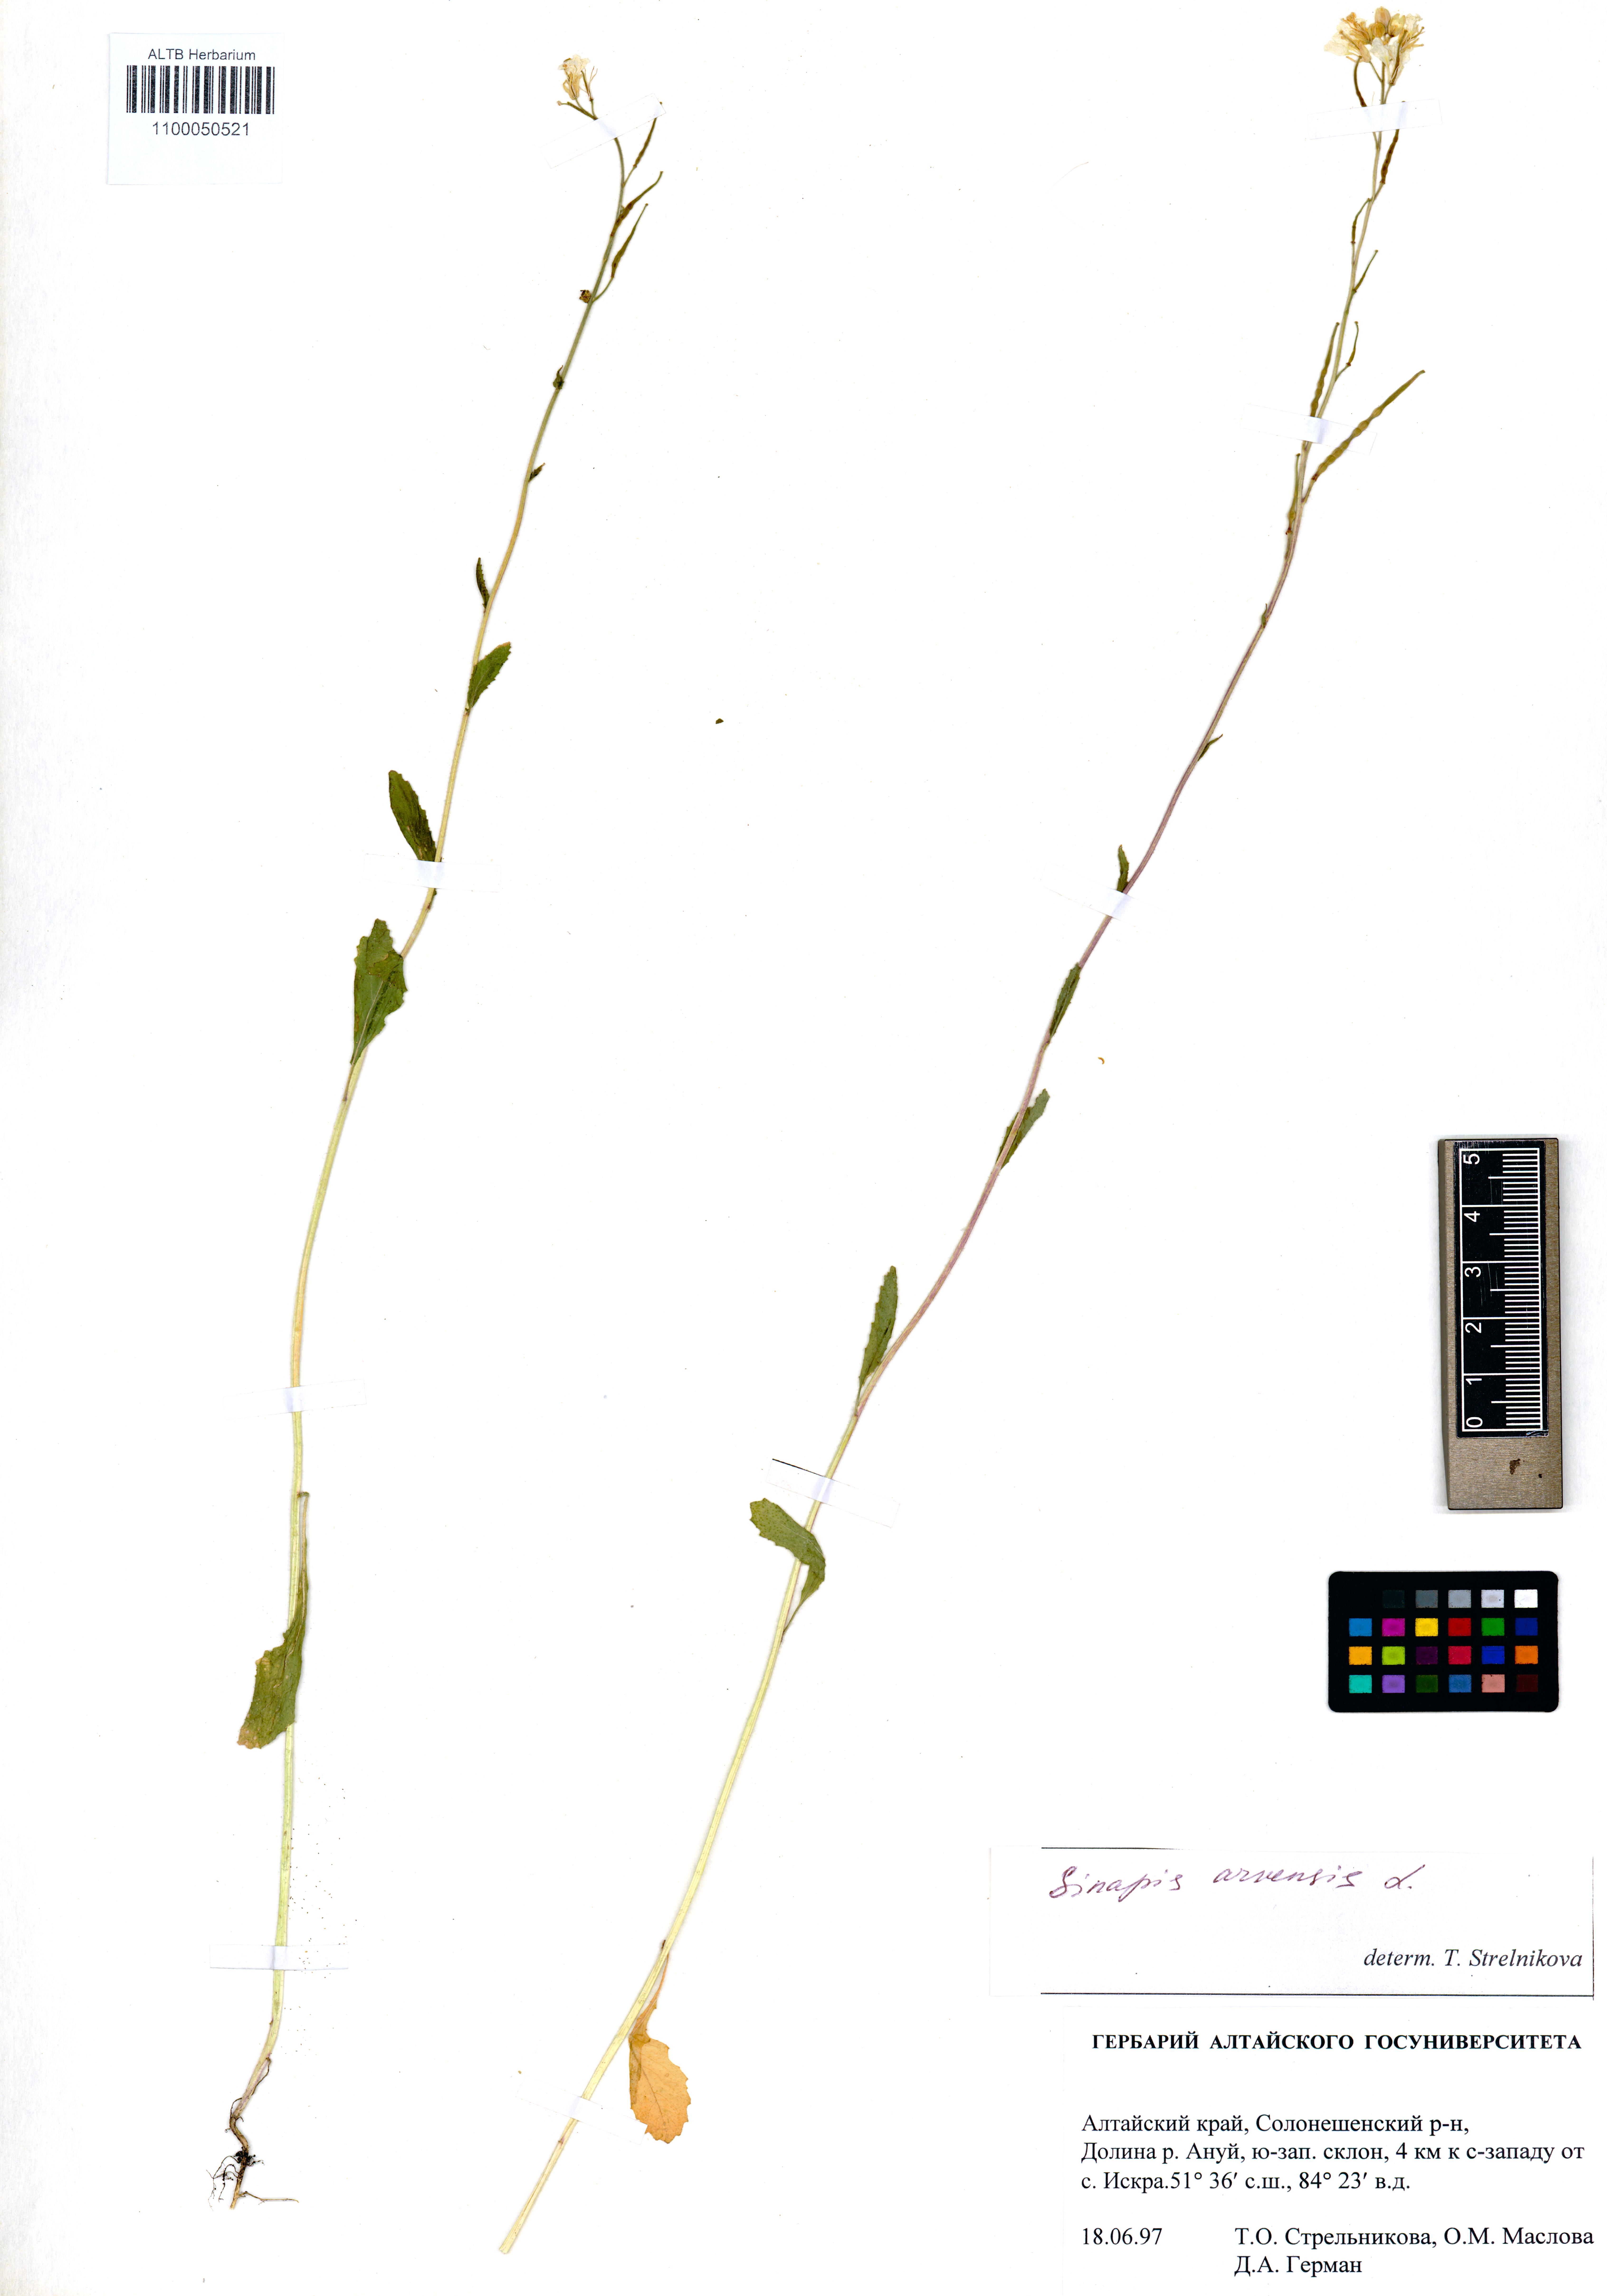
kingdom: Plantae
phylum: Tracheophyta
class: Magnoliopsida
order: Brassicales
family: Brassicaceae
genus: Sinapis
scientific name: Sinapis arvensis
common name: Charlock
